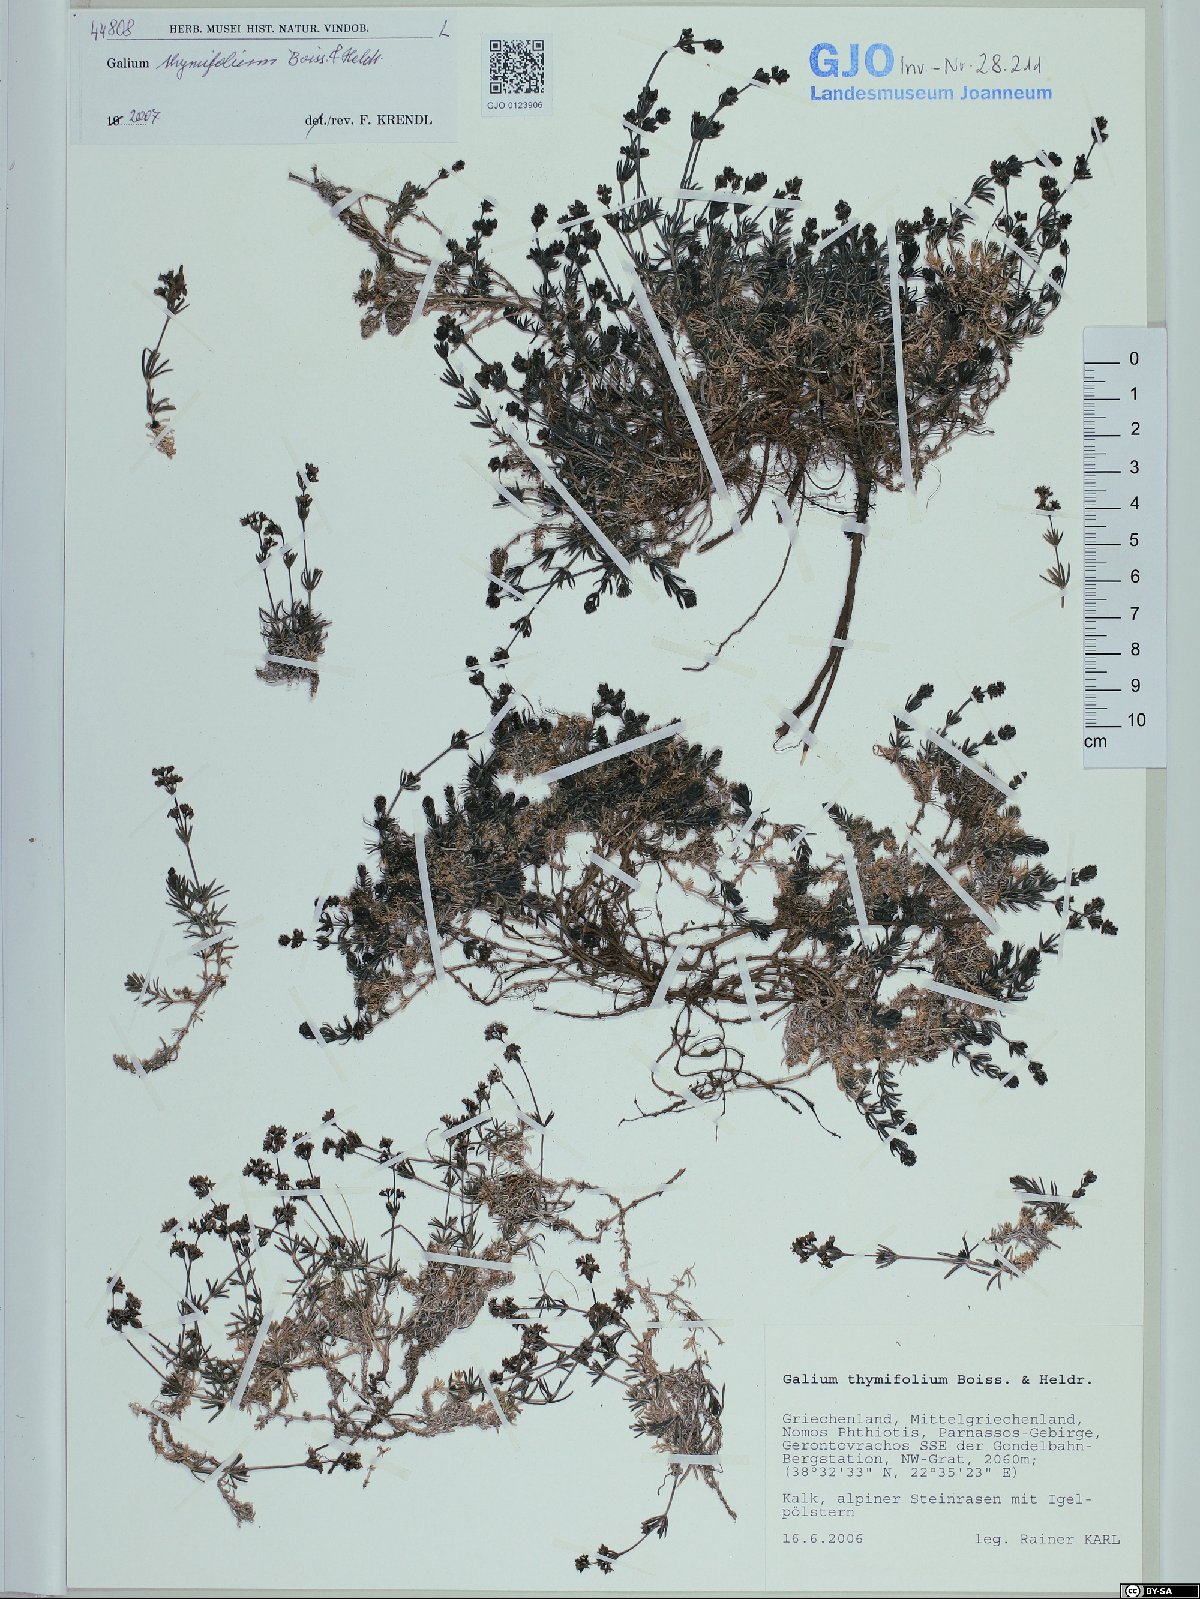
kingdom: Plantae
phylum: Tracheophyta
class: Magnoliopsida
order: Gentianales
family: Rubiaceae
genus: Galium
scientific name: Galium thymifolium
